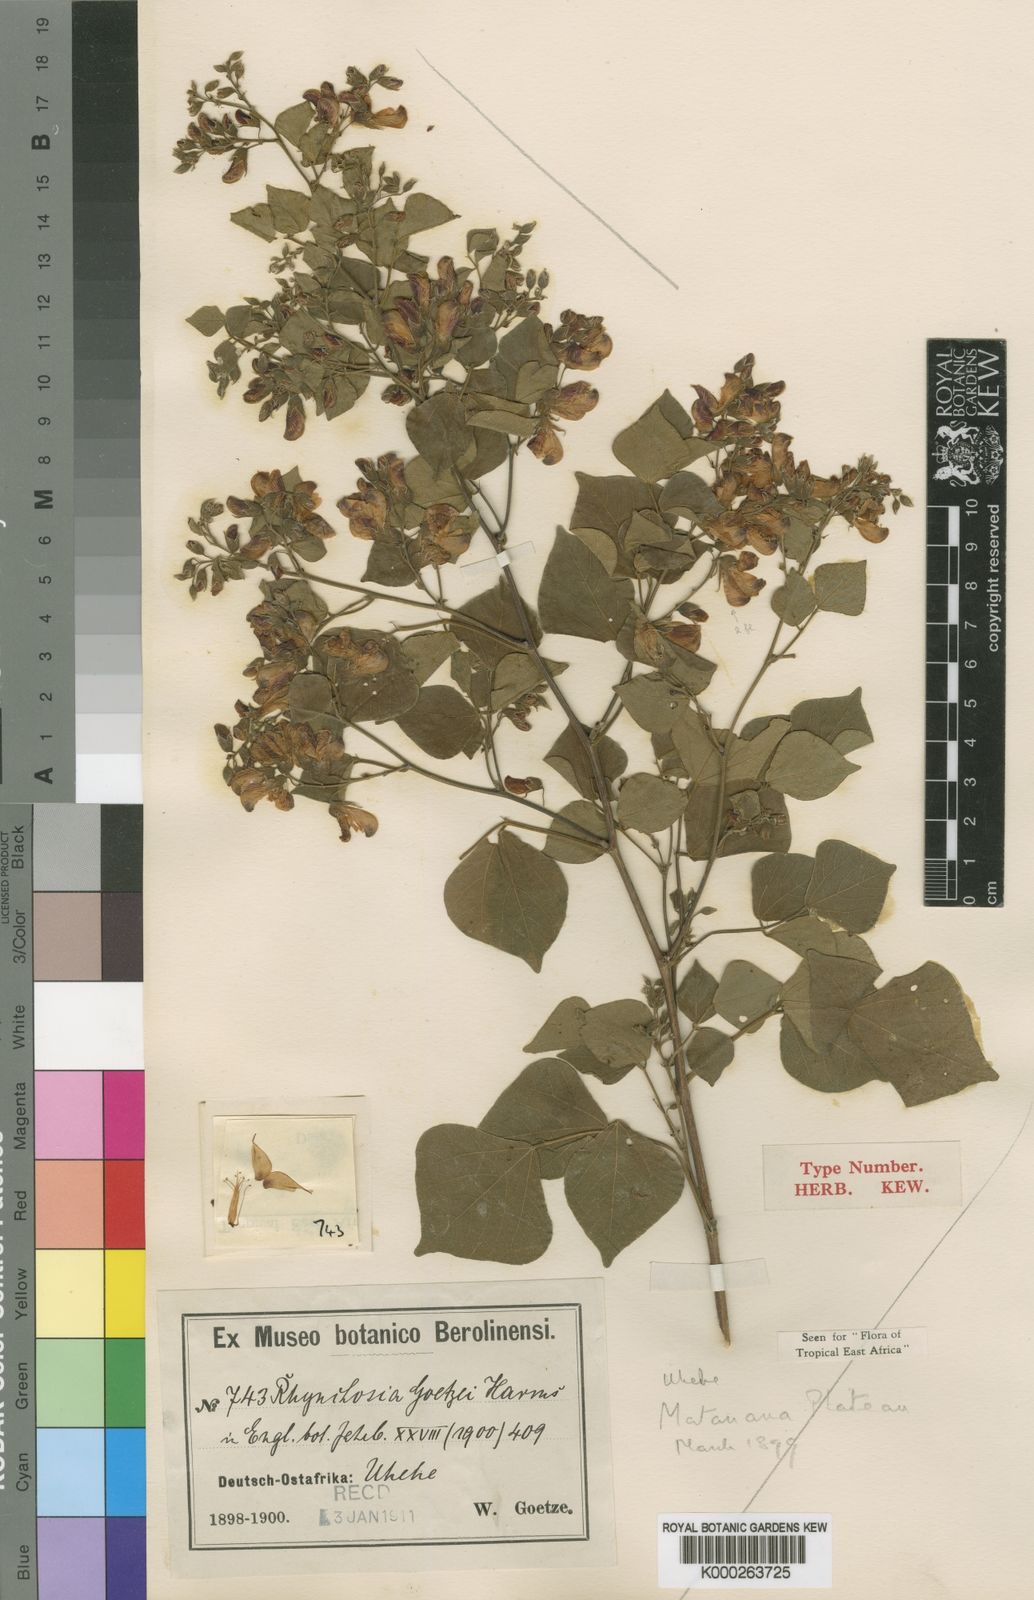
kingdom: Plantae
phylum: Tracheophyta
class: Magnoliopsida
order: Fabales
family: Fabaceae
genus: Rhynchosia
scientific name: Rhynchosia goetzei
